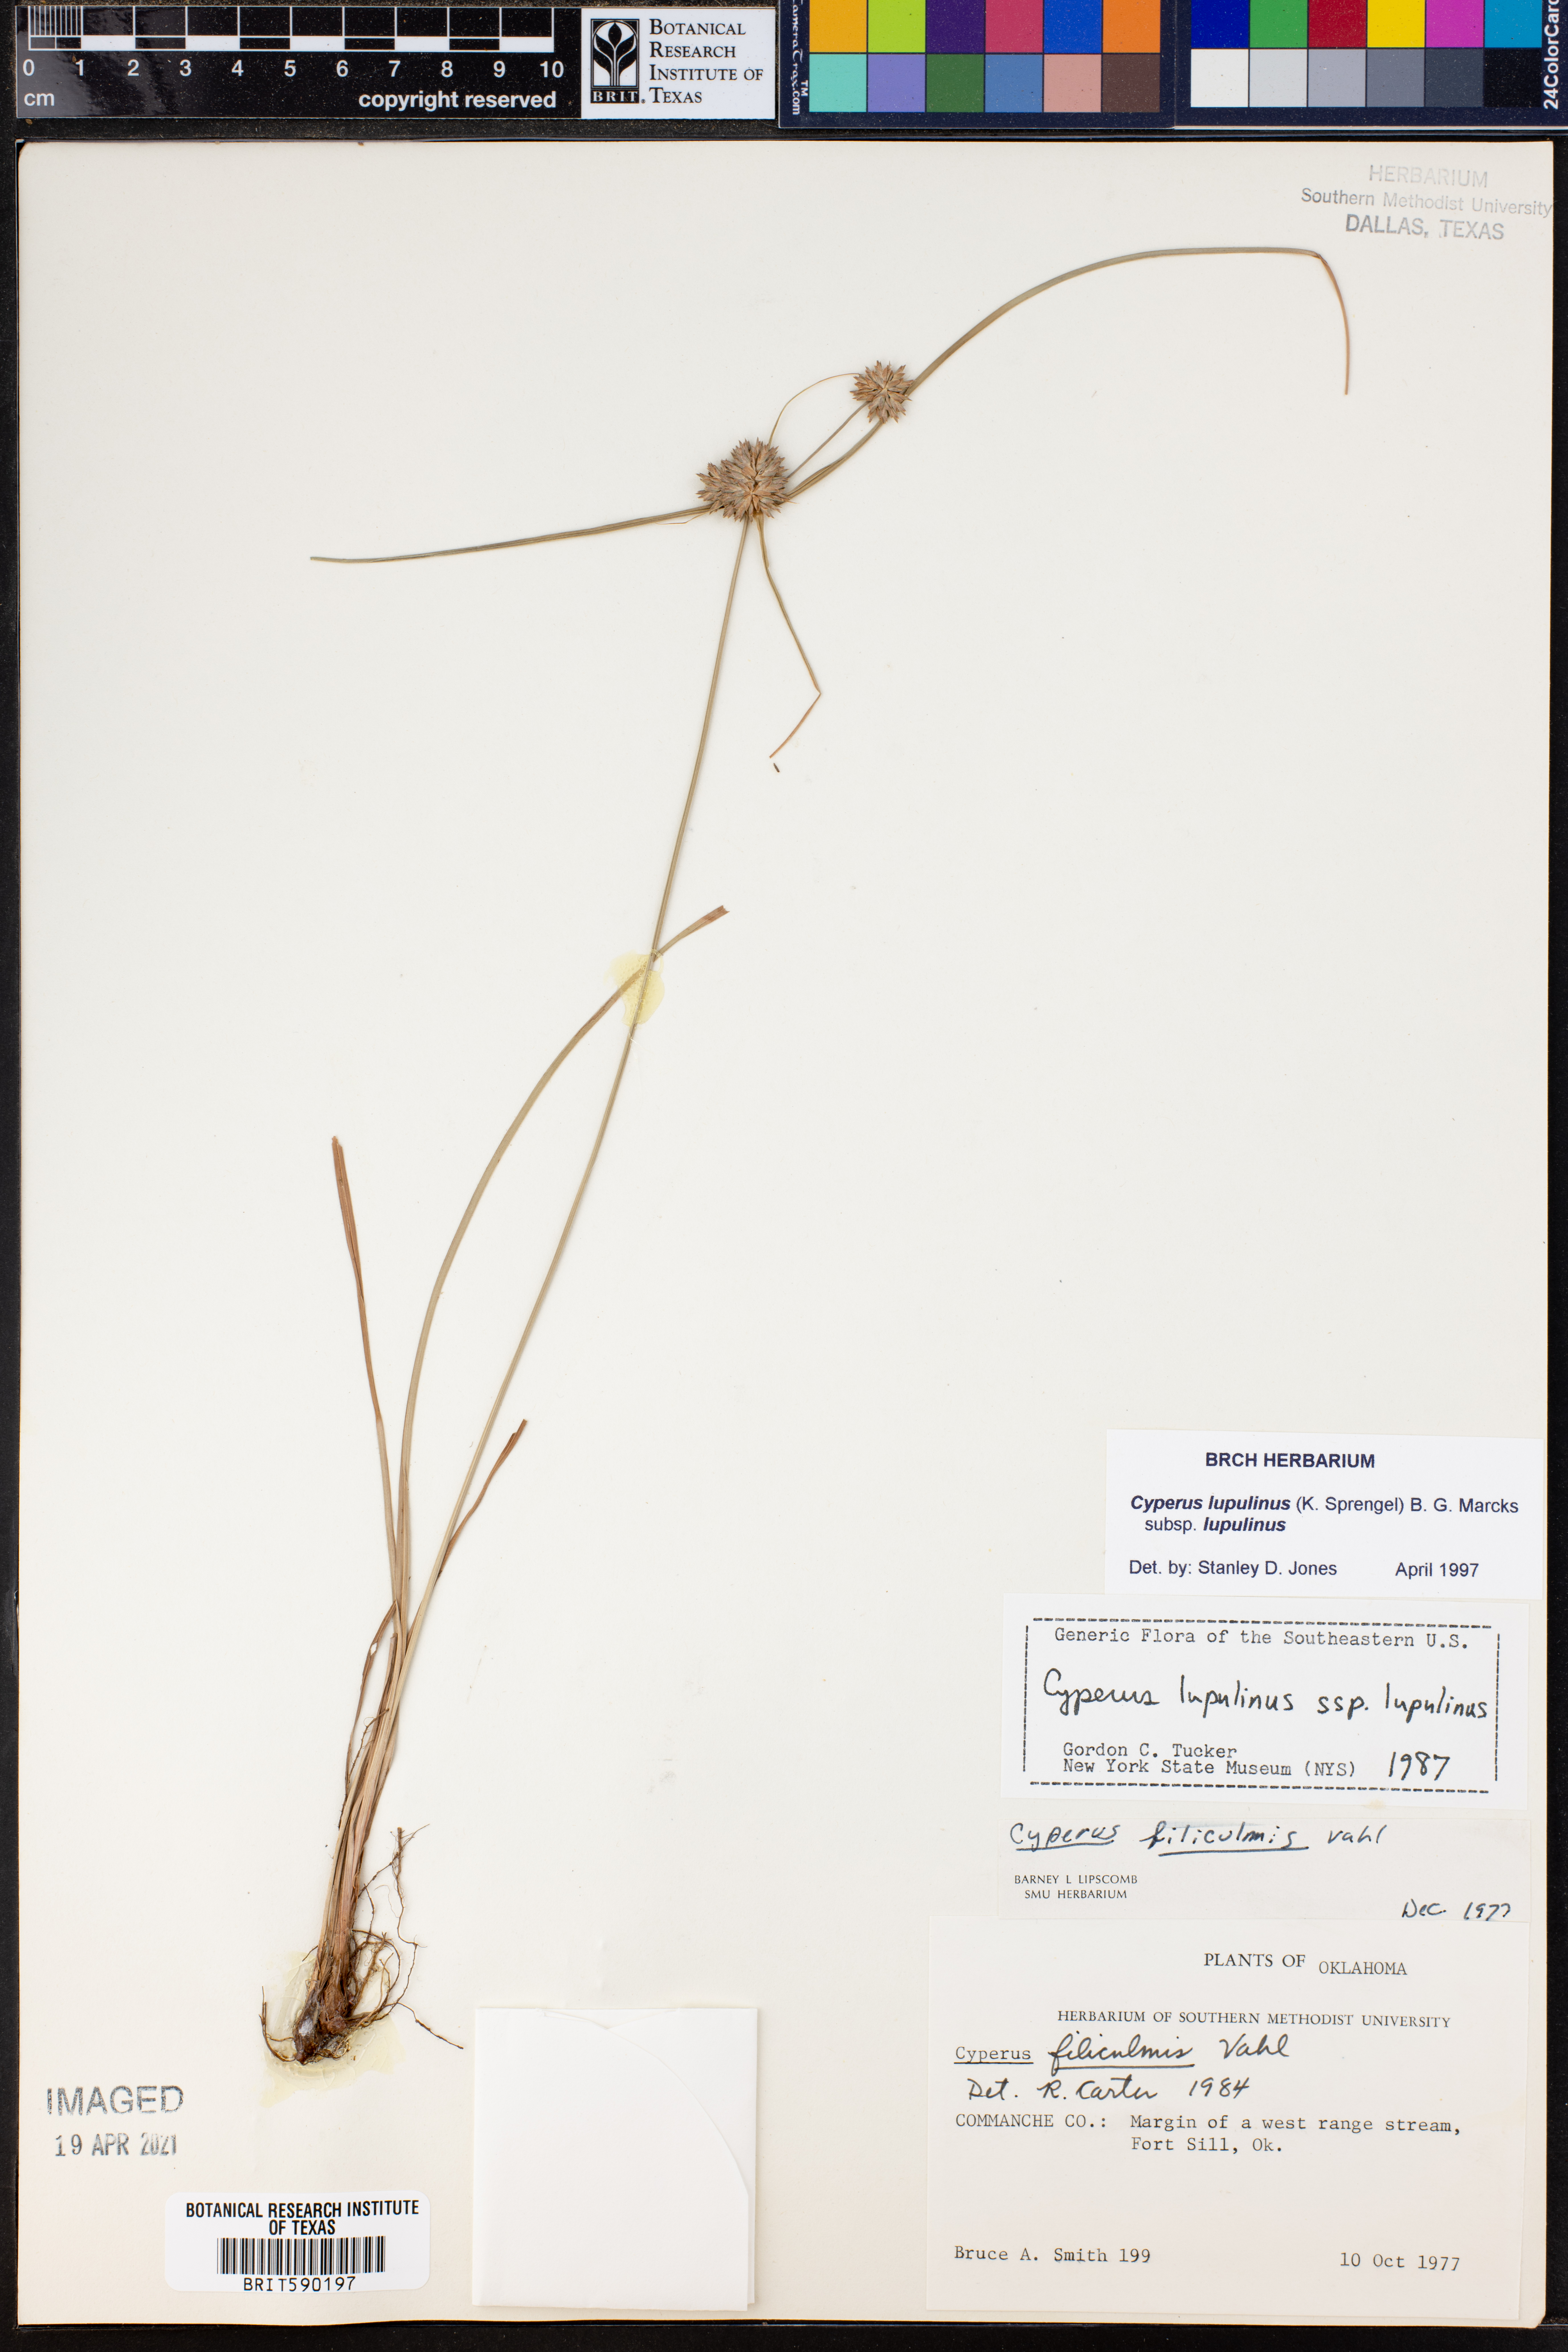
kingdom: Plantae
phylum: Tracheophyta
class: Liliopsida
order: Poales
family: Cyperaceae
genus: Cyperus
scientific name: Cyperus lupulinus
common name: Great plains flatsedge
